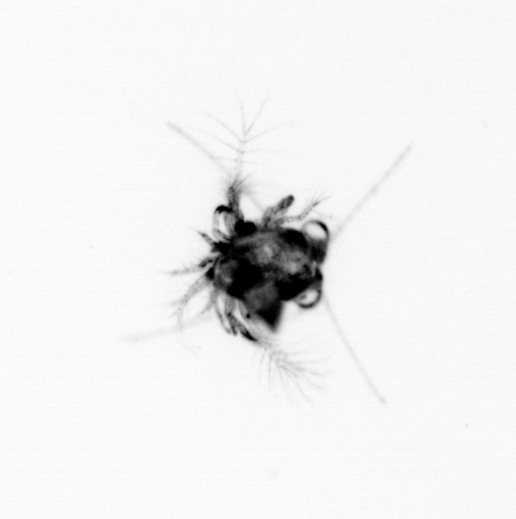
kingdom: Animalia
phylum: Arthropoda
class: Malacostraca
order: Decapoda
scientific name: Decapoda
